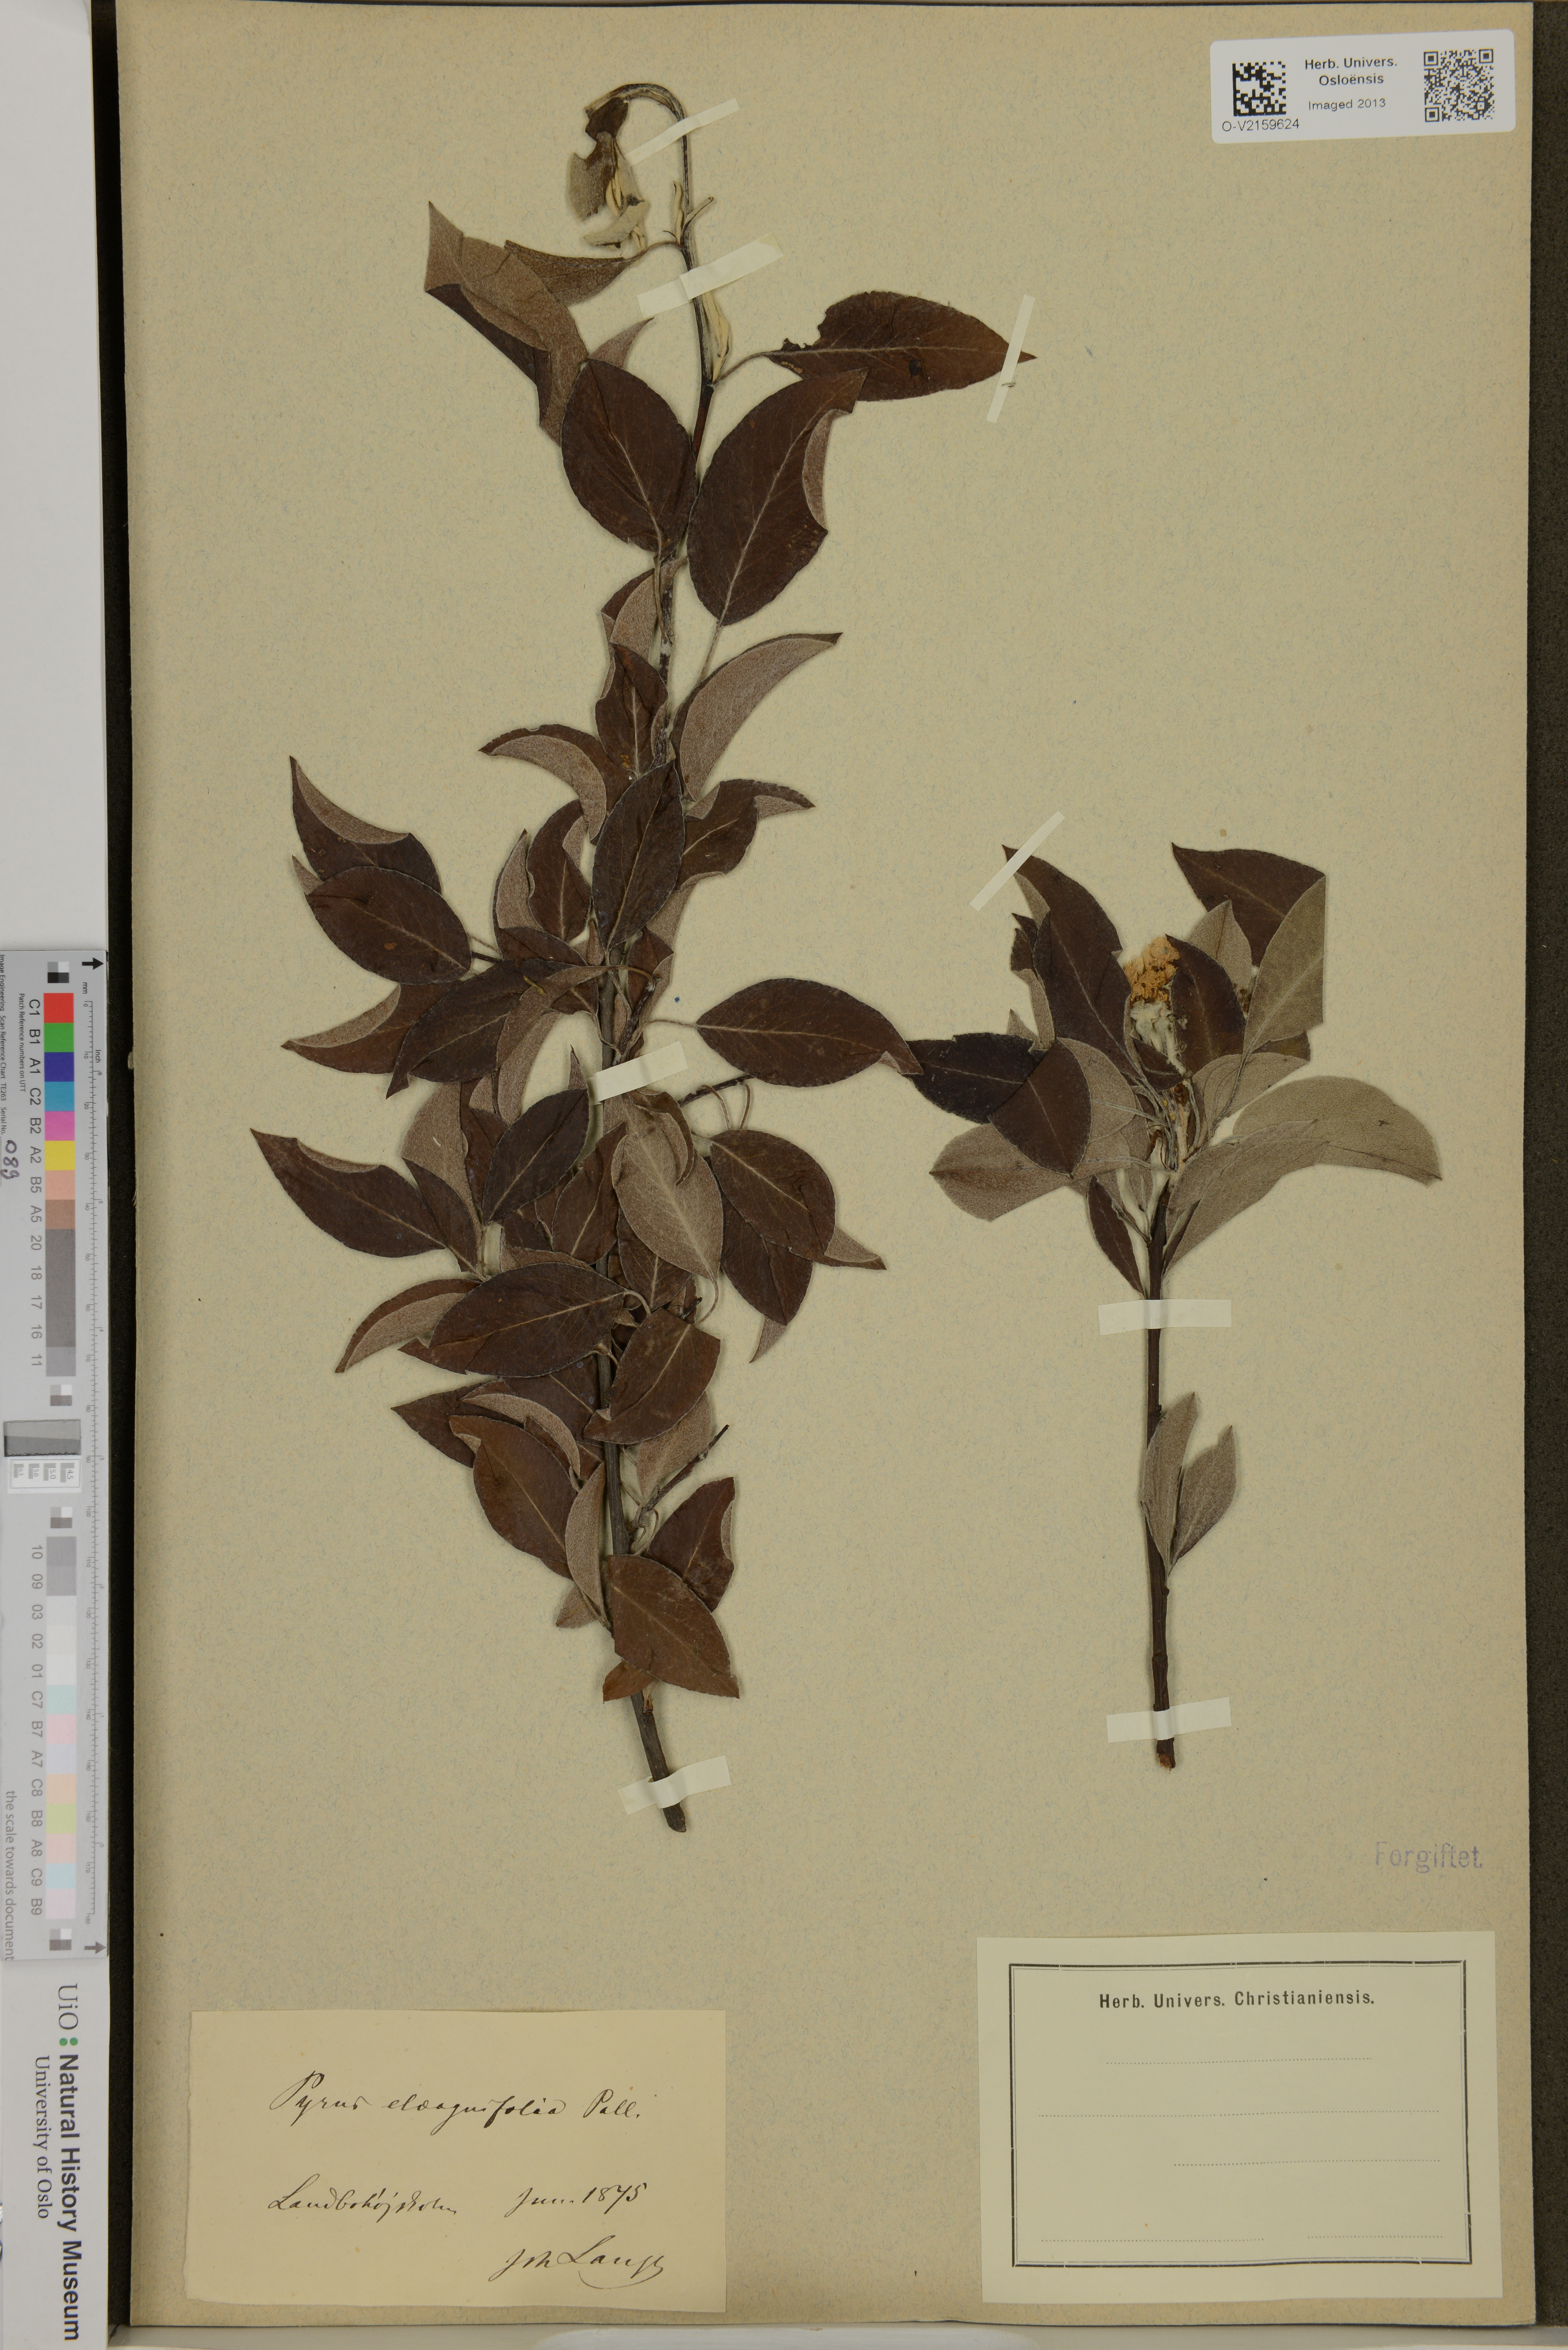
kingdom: Plantae
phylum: Tracheophyta
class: Magnoliopsida
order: Rosales
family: Rosaceae
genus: Pyrus
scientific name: Pyrus elaeagnifolia
